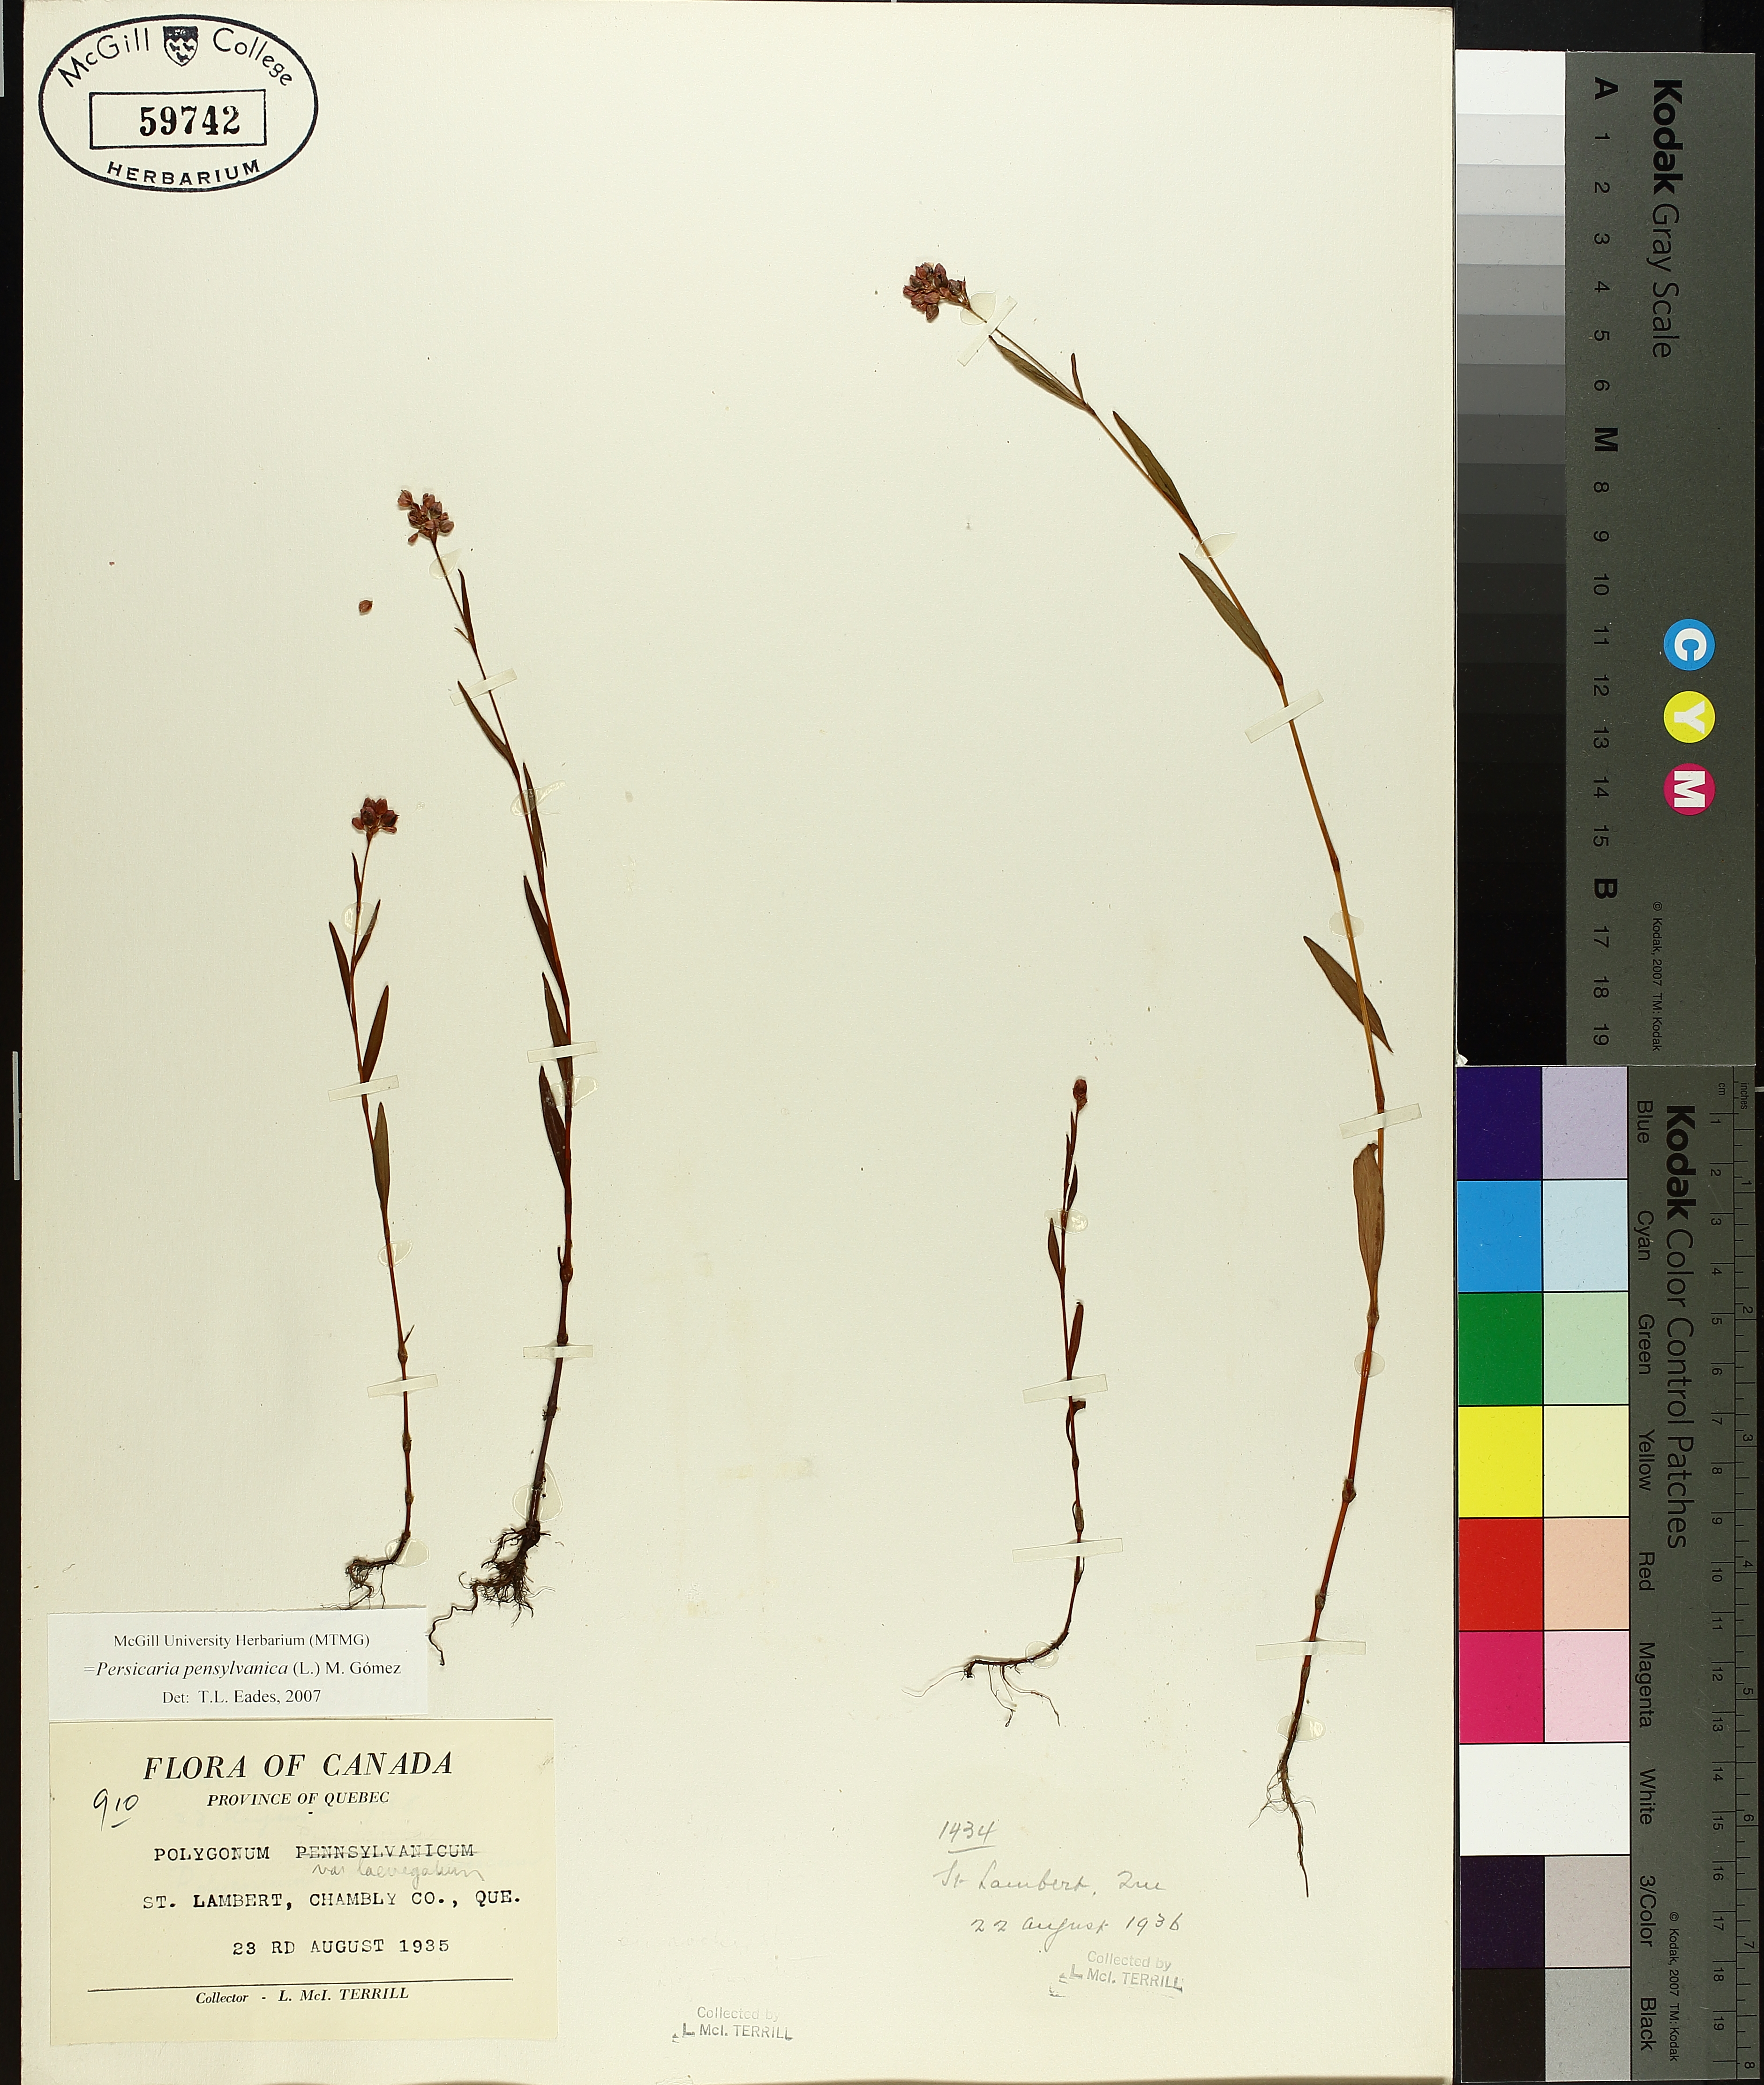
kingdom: Plantae
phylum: Tracheophyta
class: Magnoliopsida
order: Caryophyllales
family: Polygonaceae
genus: Persicaria
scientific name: Persicaria bungeana
